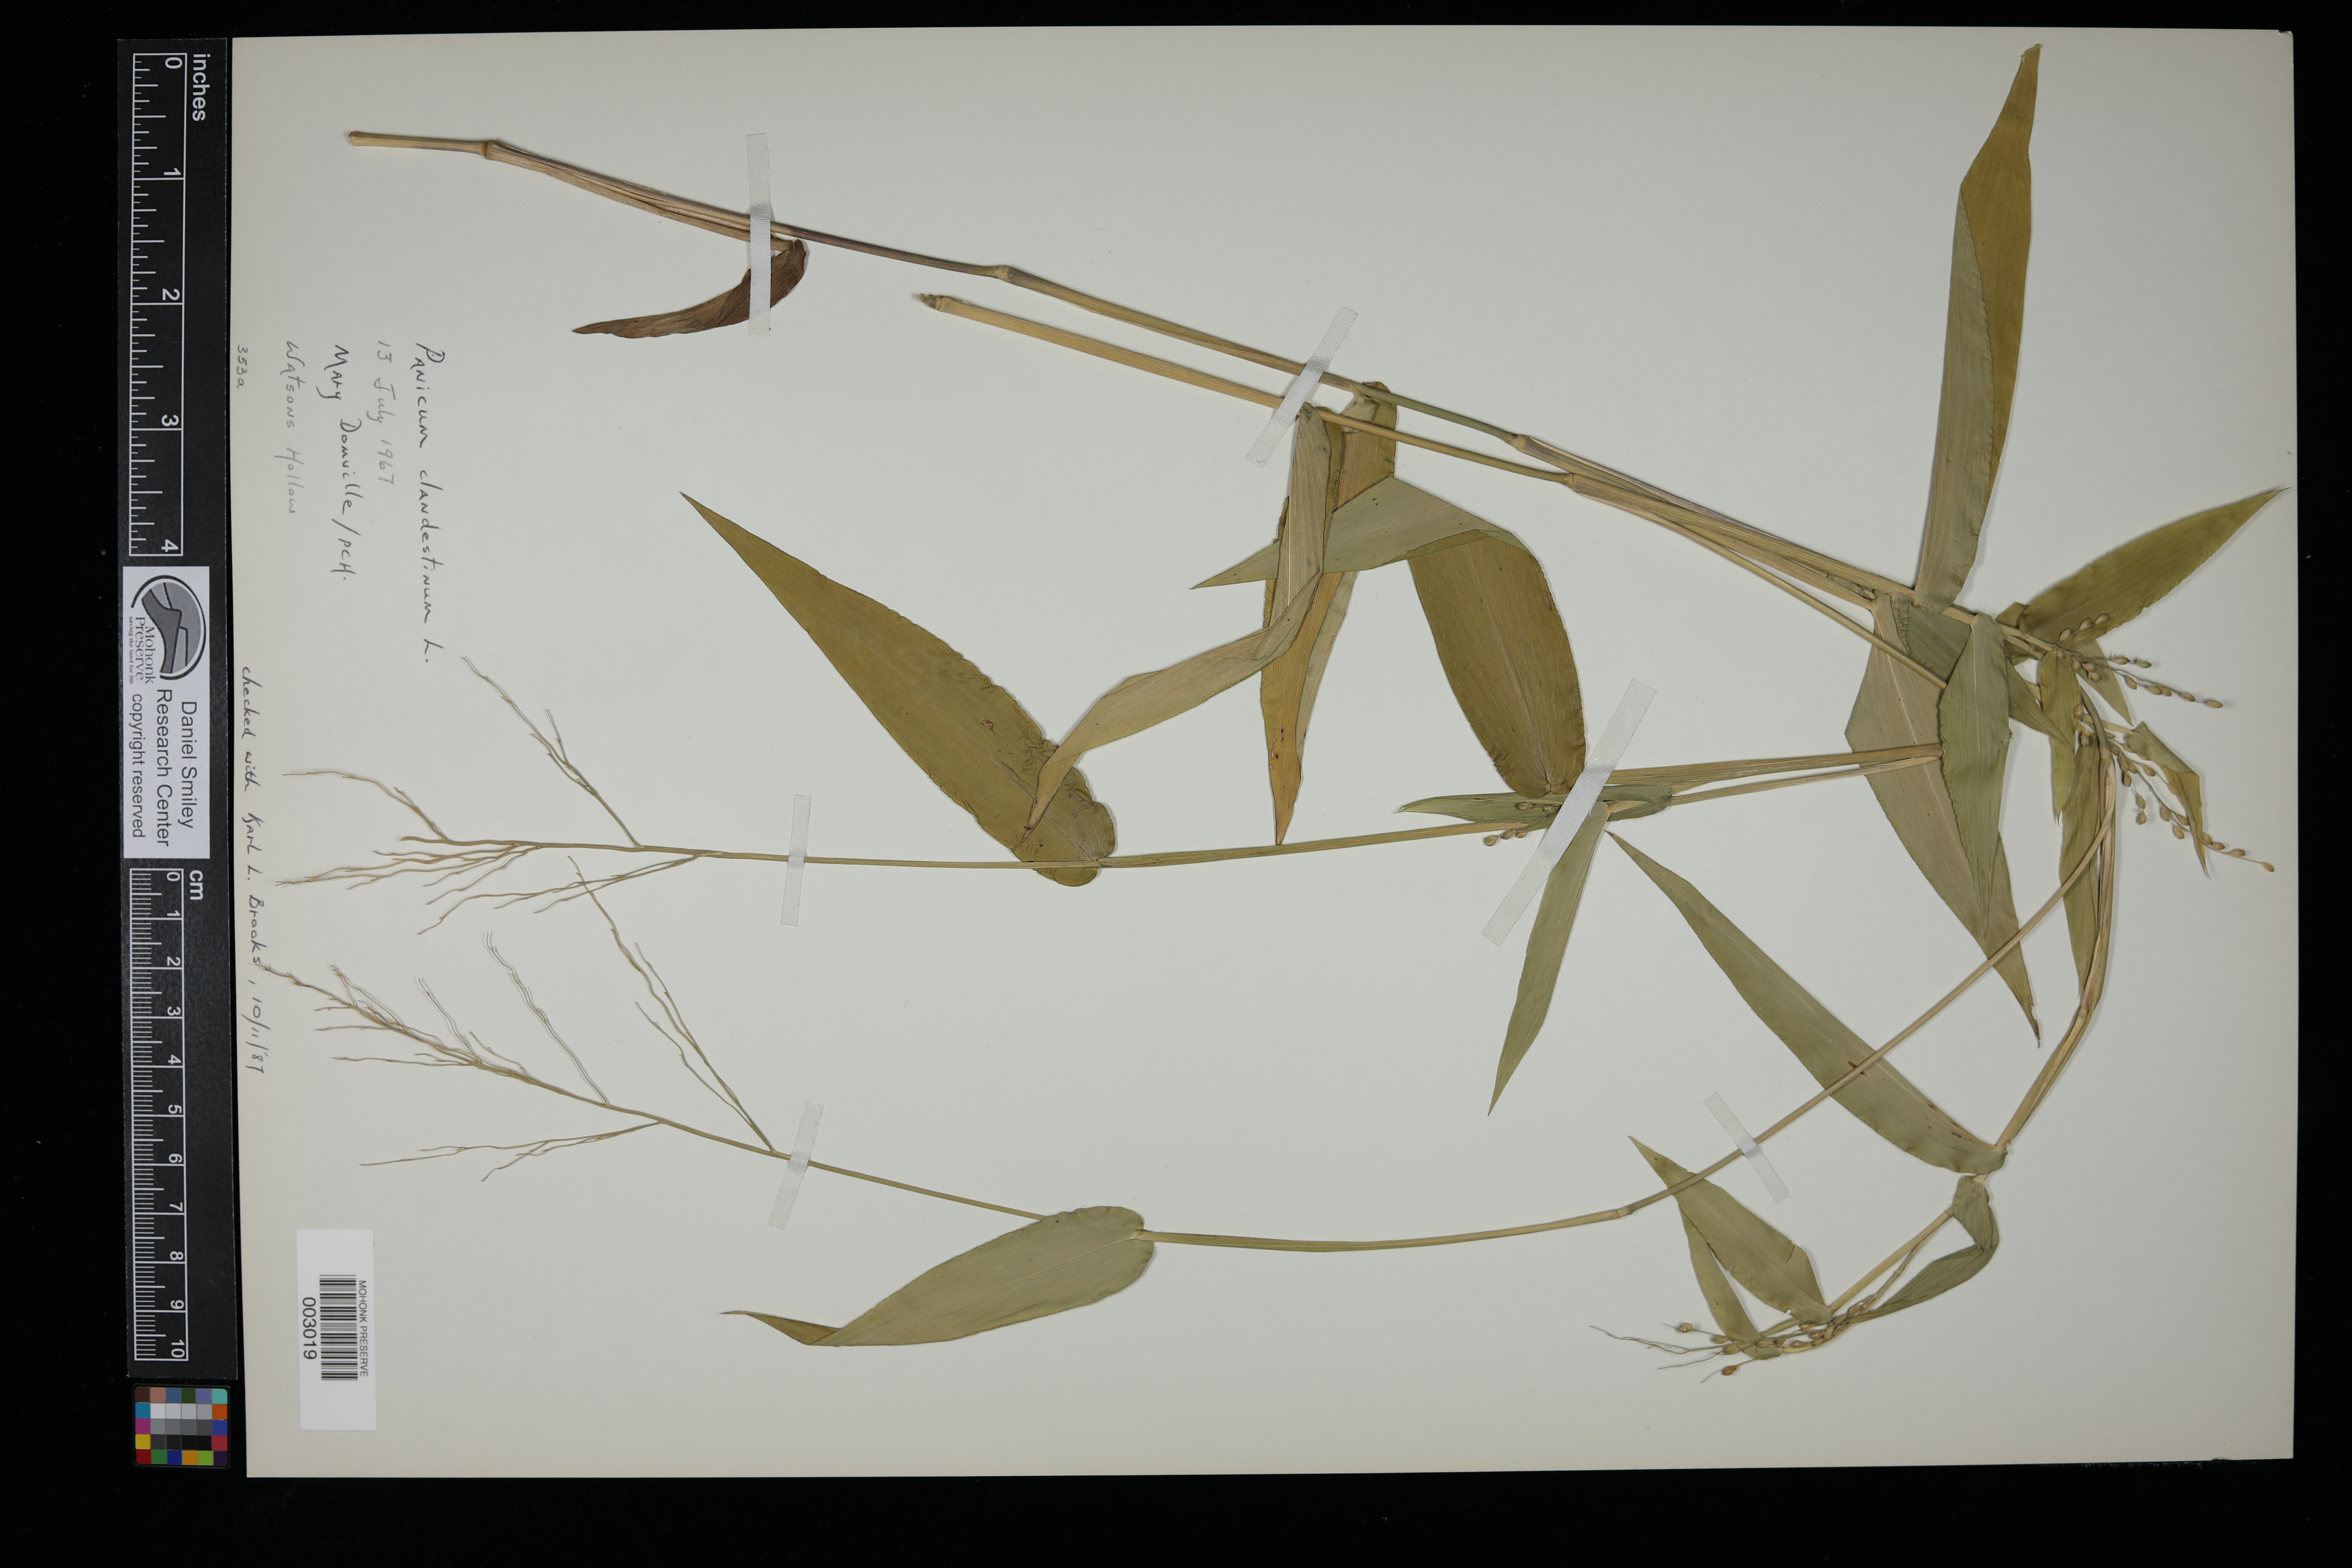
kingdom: Plantae
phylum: Tracheophyta
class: Liliopsida
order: Poales
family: Poaceae
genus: Dichanthelium
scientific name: Dichanthelium clandestinum
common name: Deer-tongue grass
